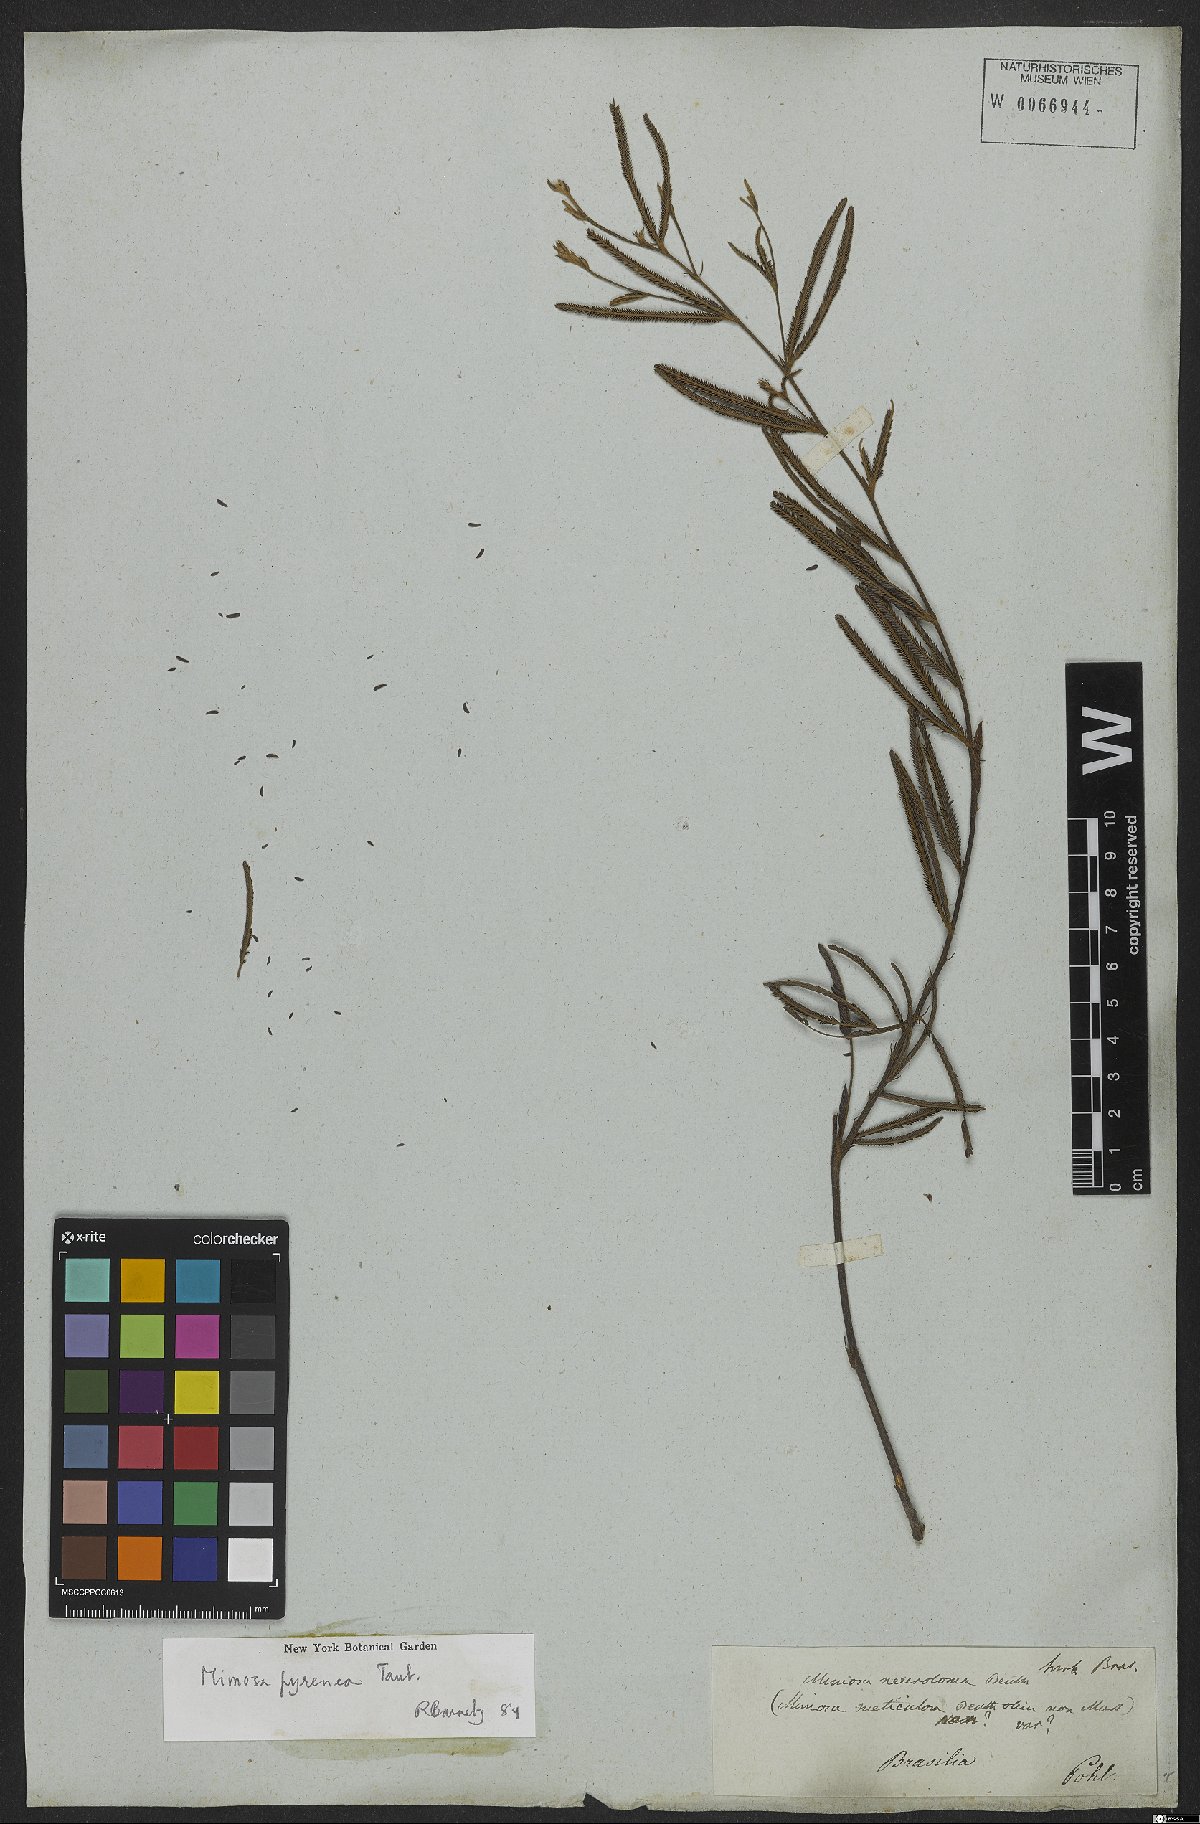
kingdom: Plantae
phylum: Tracheophyta
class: Magnoliopsida
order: Fabales
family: Fabaceae
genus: Mimosa
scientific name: Mimosa distans
